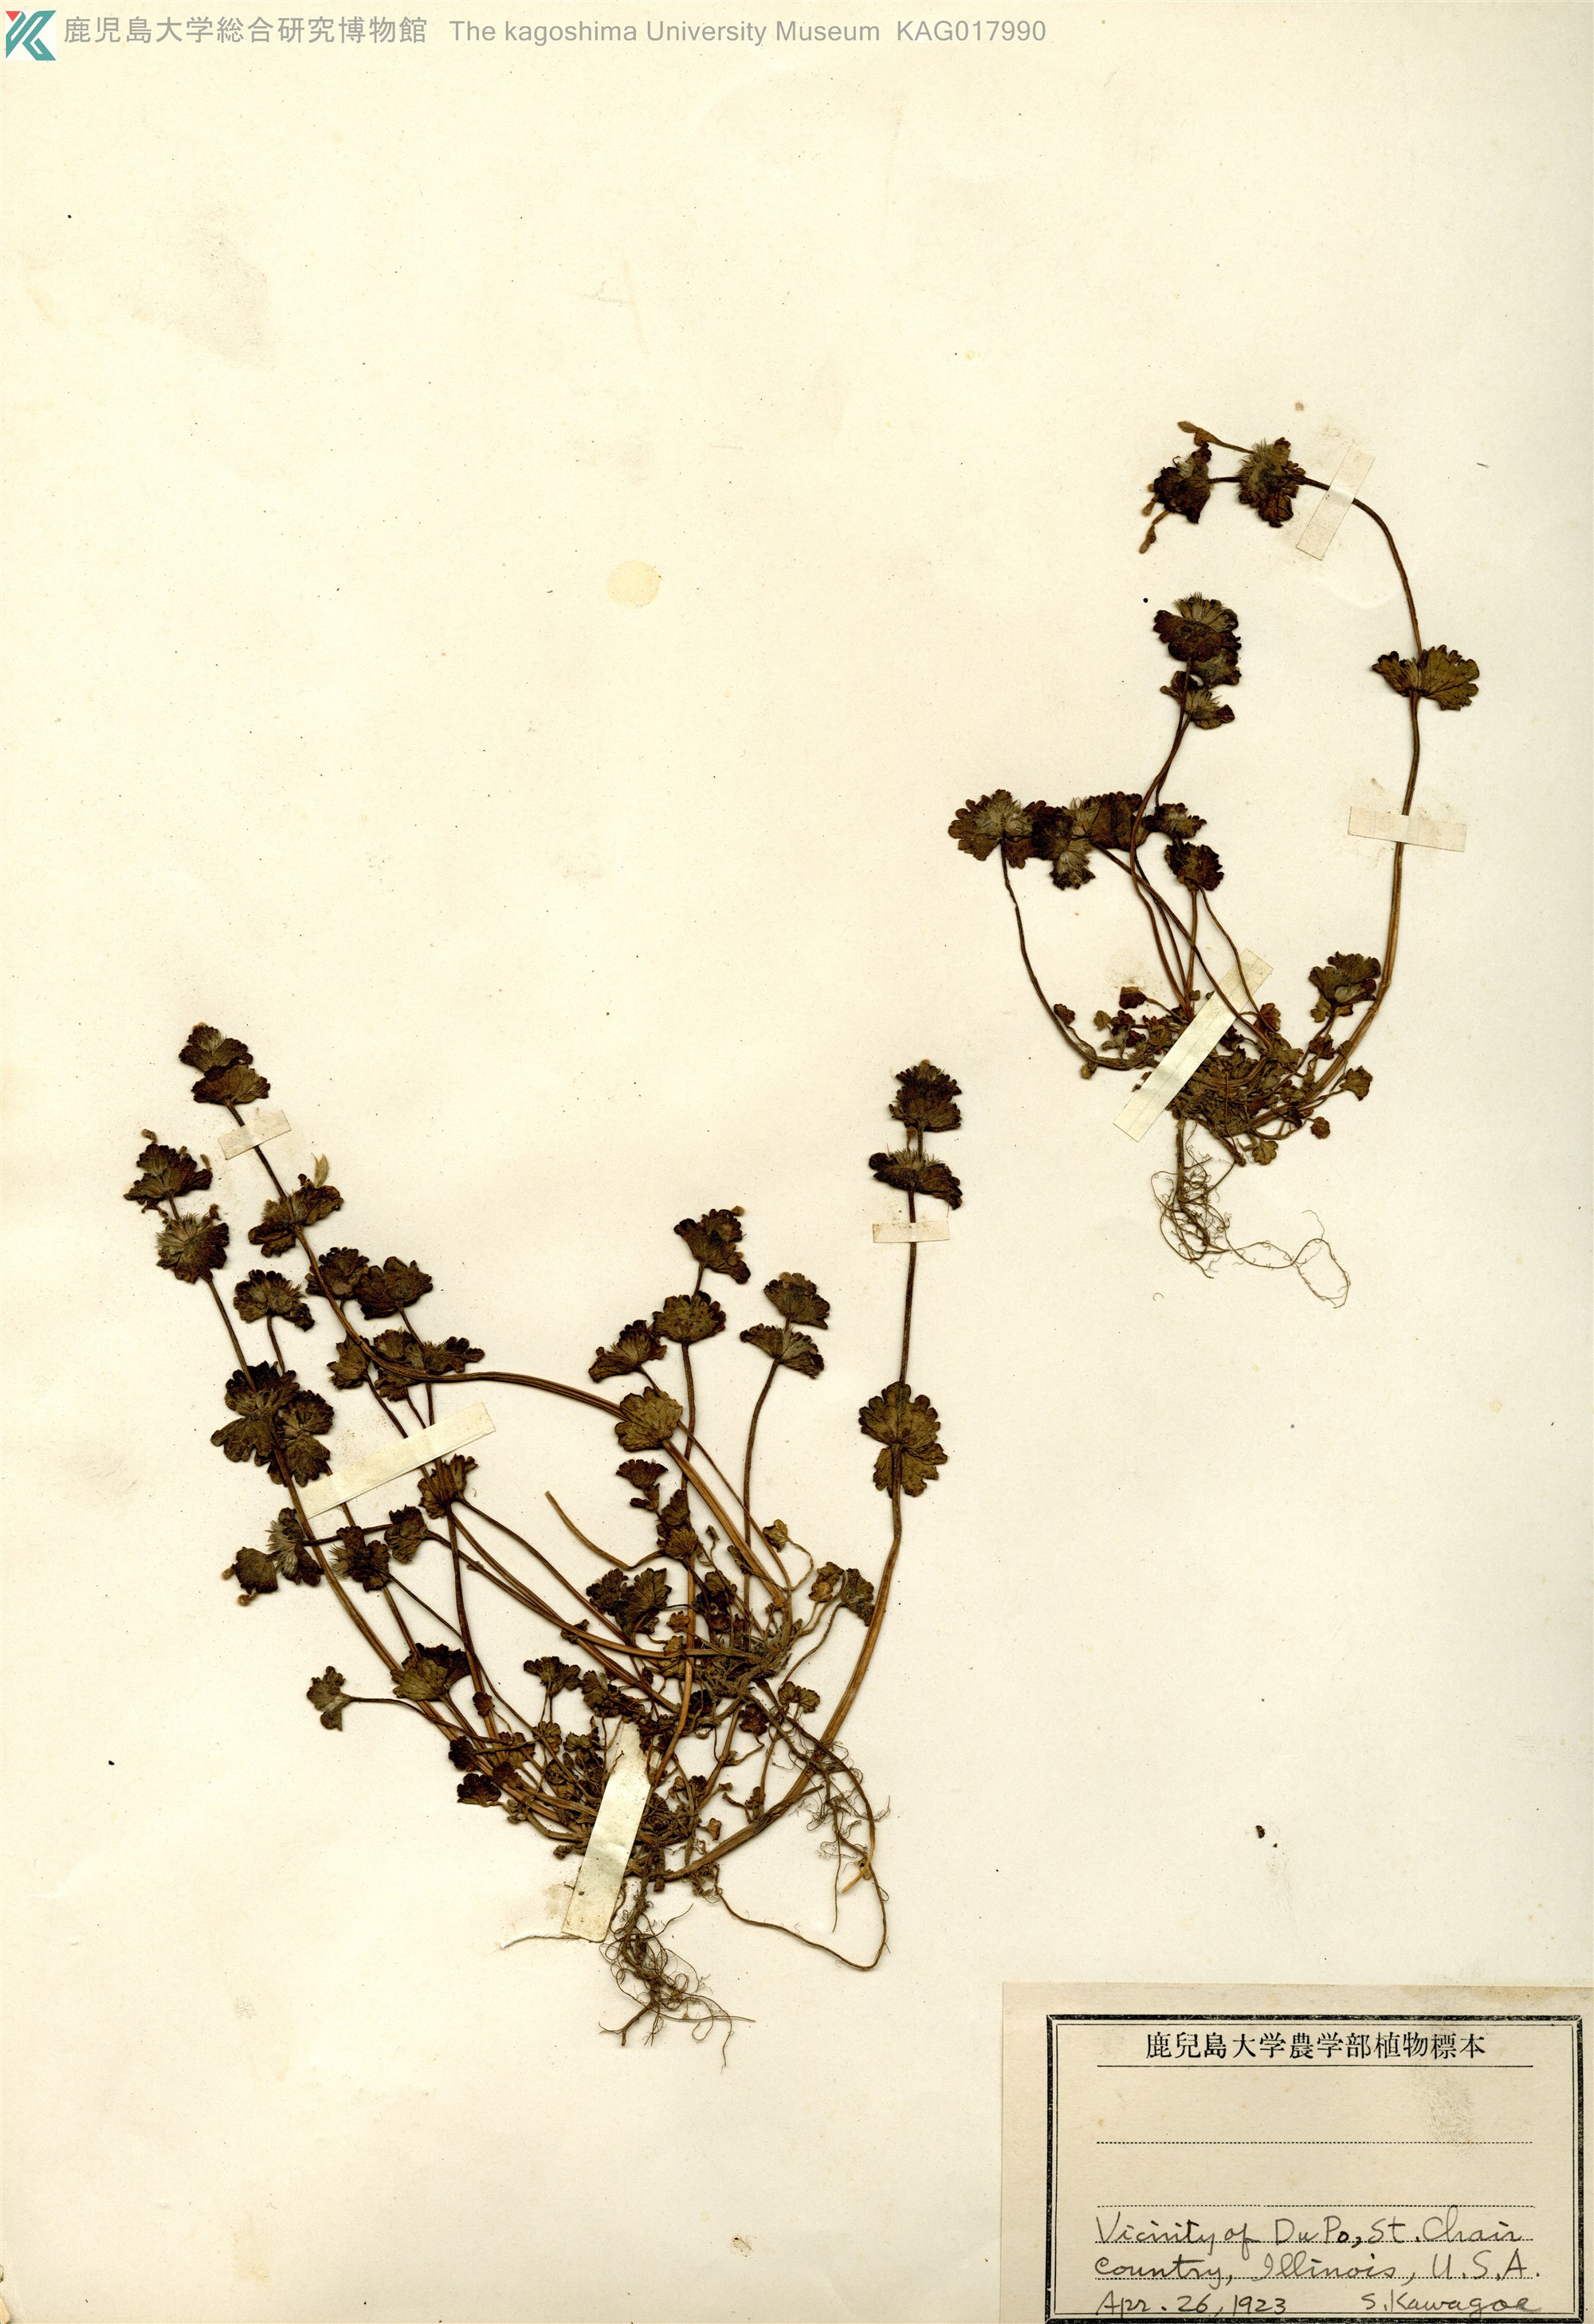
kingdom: Plantae
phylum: Tracheophyta
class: Magnoliopsida
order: Lamiales
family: Lamiaceae
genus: Lamium
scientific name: Lamium amplexicaule
